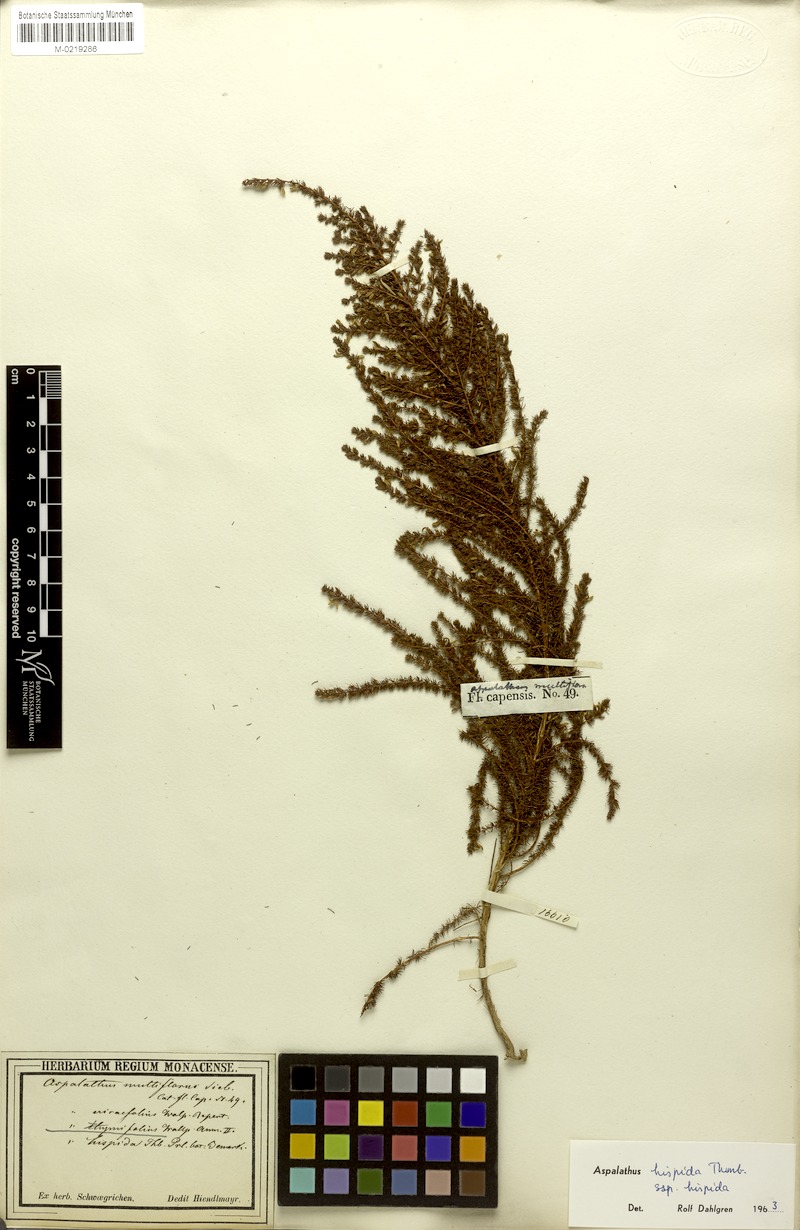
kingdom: Plantae
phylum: Tracheophyta
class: Magnoliopsida
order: Fabales
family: Fabaceae
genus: Aspalathus
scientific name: Aspalathus hispida
